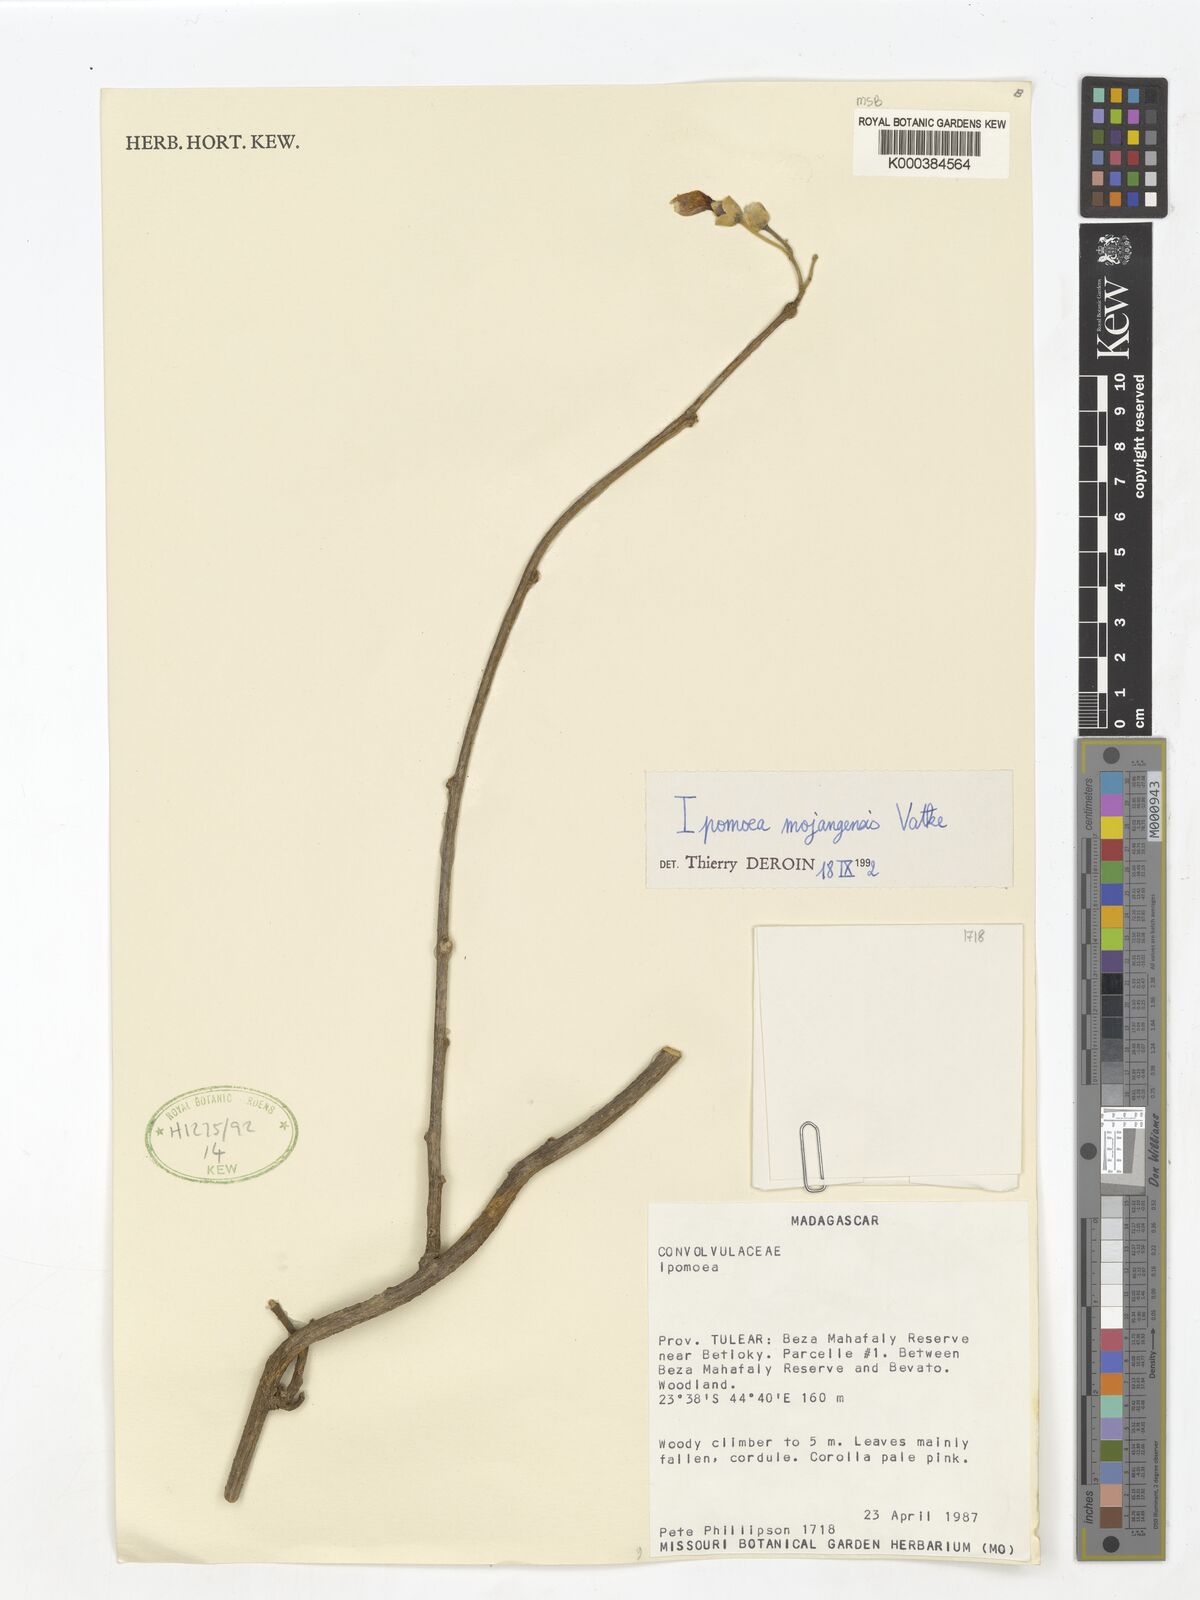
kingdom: Plantae
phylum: Tracheophyta
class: Magnoliopsida
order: Solanales
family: Convolvulaceae
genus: Stictocardia
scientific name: Stictocardia mojangensis
